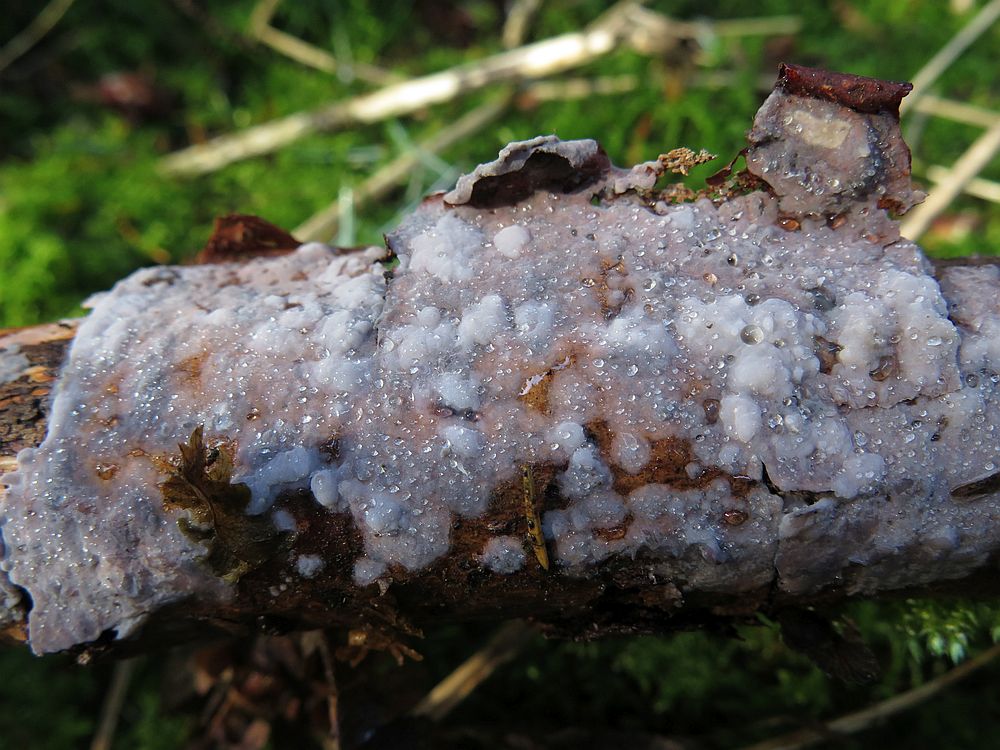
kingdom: Fungi
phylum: Basidiomycota
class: Agaricomycetes
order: Sebacinales
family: Sebacinaceae
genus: Sebacina
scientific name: Sebacina grisea
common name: blågrå bævrehinde
